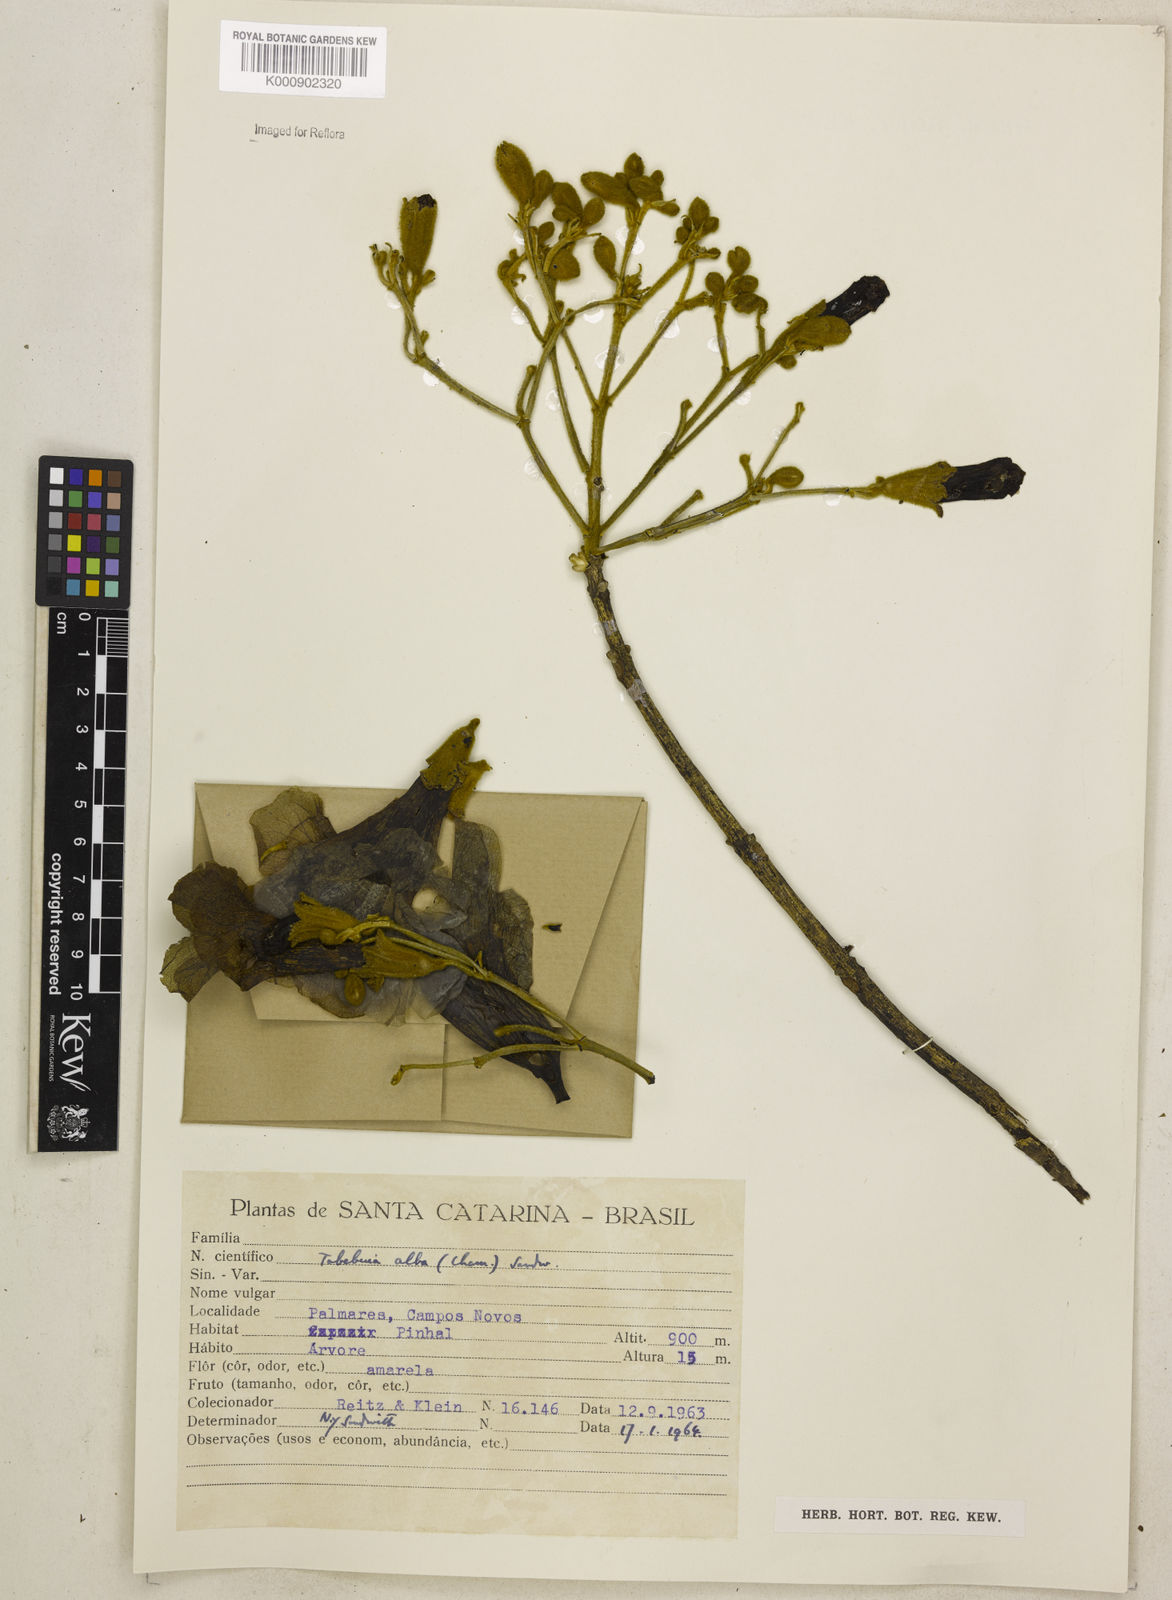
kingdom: Plantae
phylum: Tracheophyta
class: Magnoliopsida
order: Lamiales
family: Bignoniaceae
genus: Handroanthus
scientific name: Handroanthus albus
